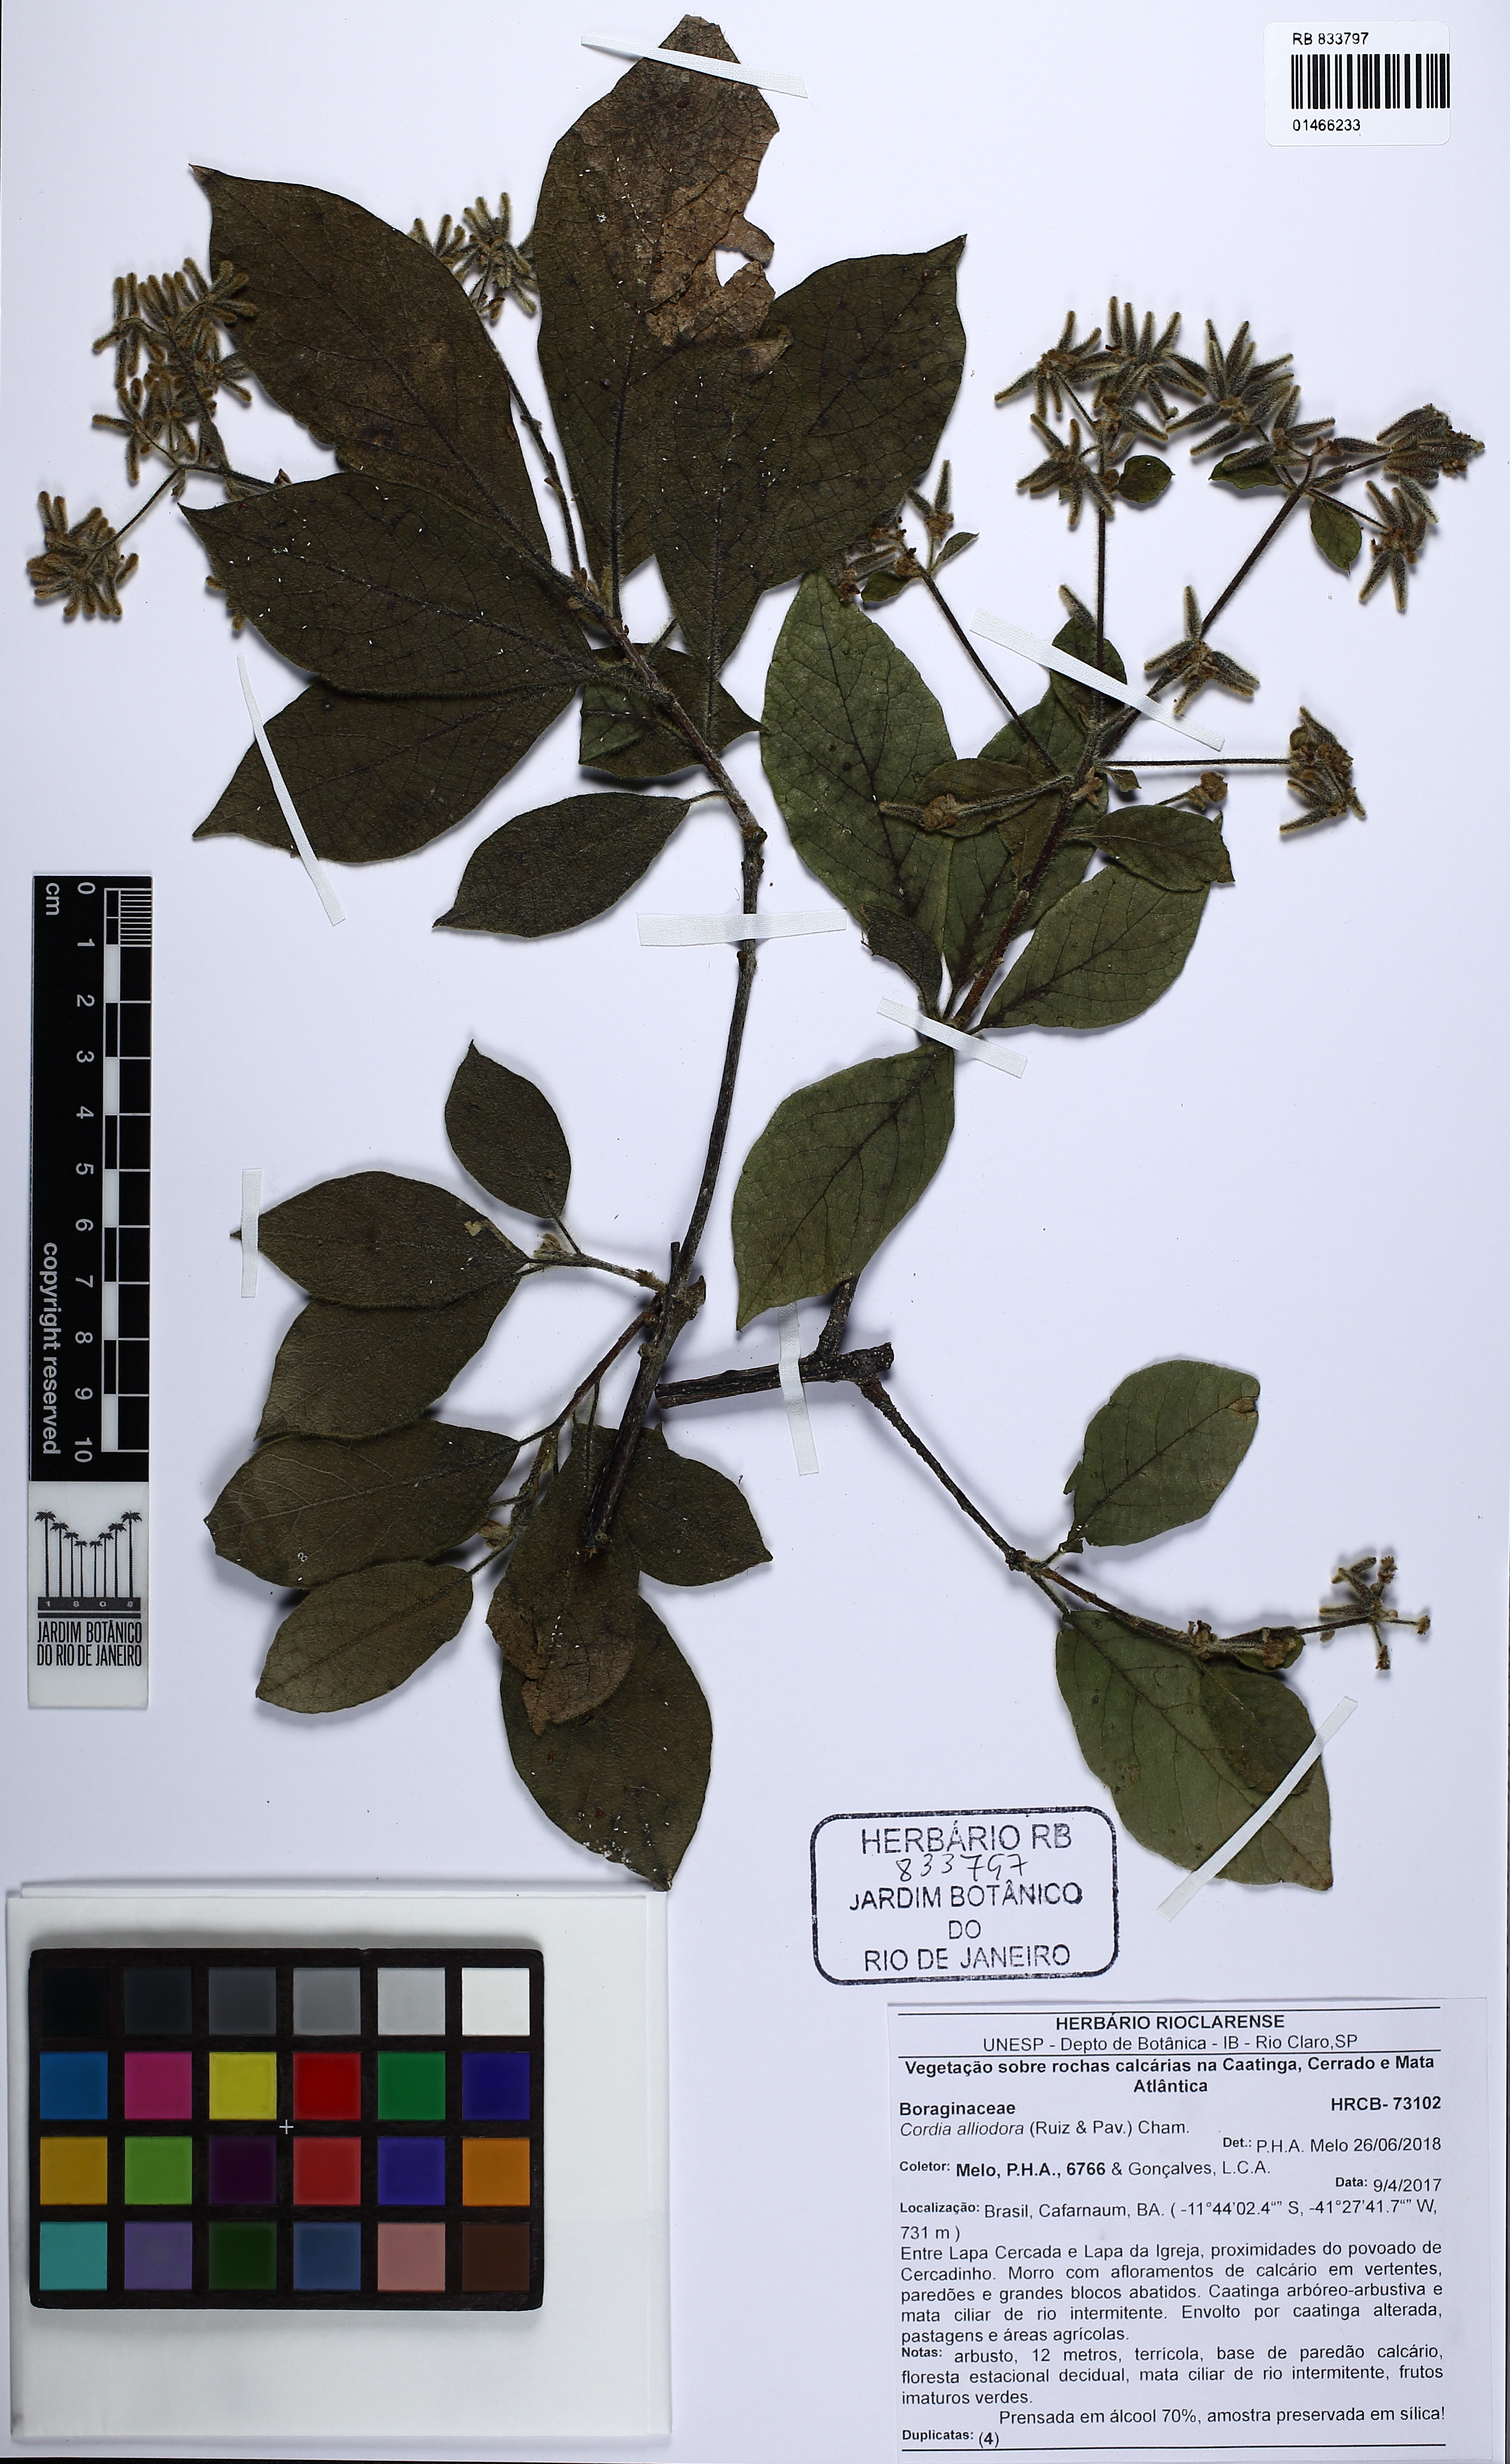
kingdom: Plantae
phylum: Tracheophyta
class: Magnoliopsida
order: Boraginales
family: Cordiaceae
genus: Cordia
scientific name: Cordia alliodora
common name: Spanish elm
